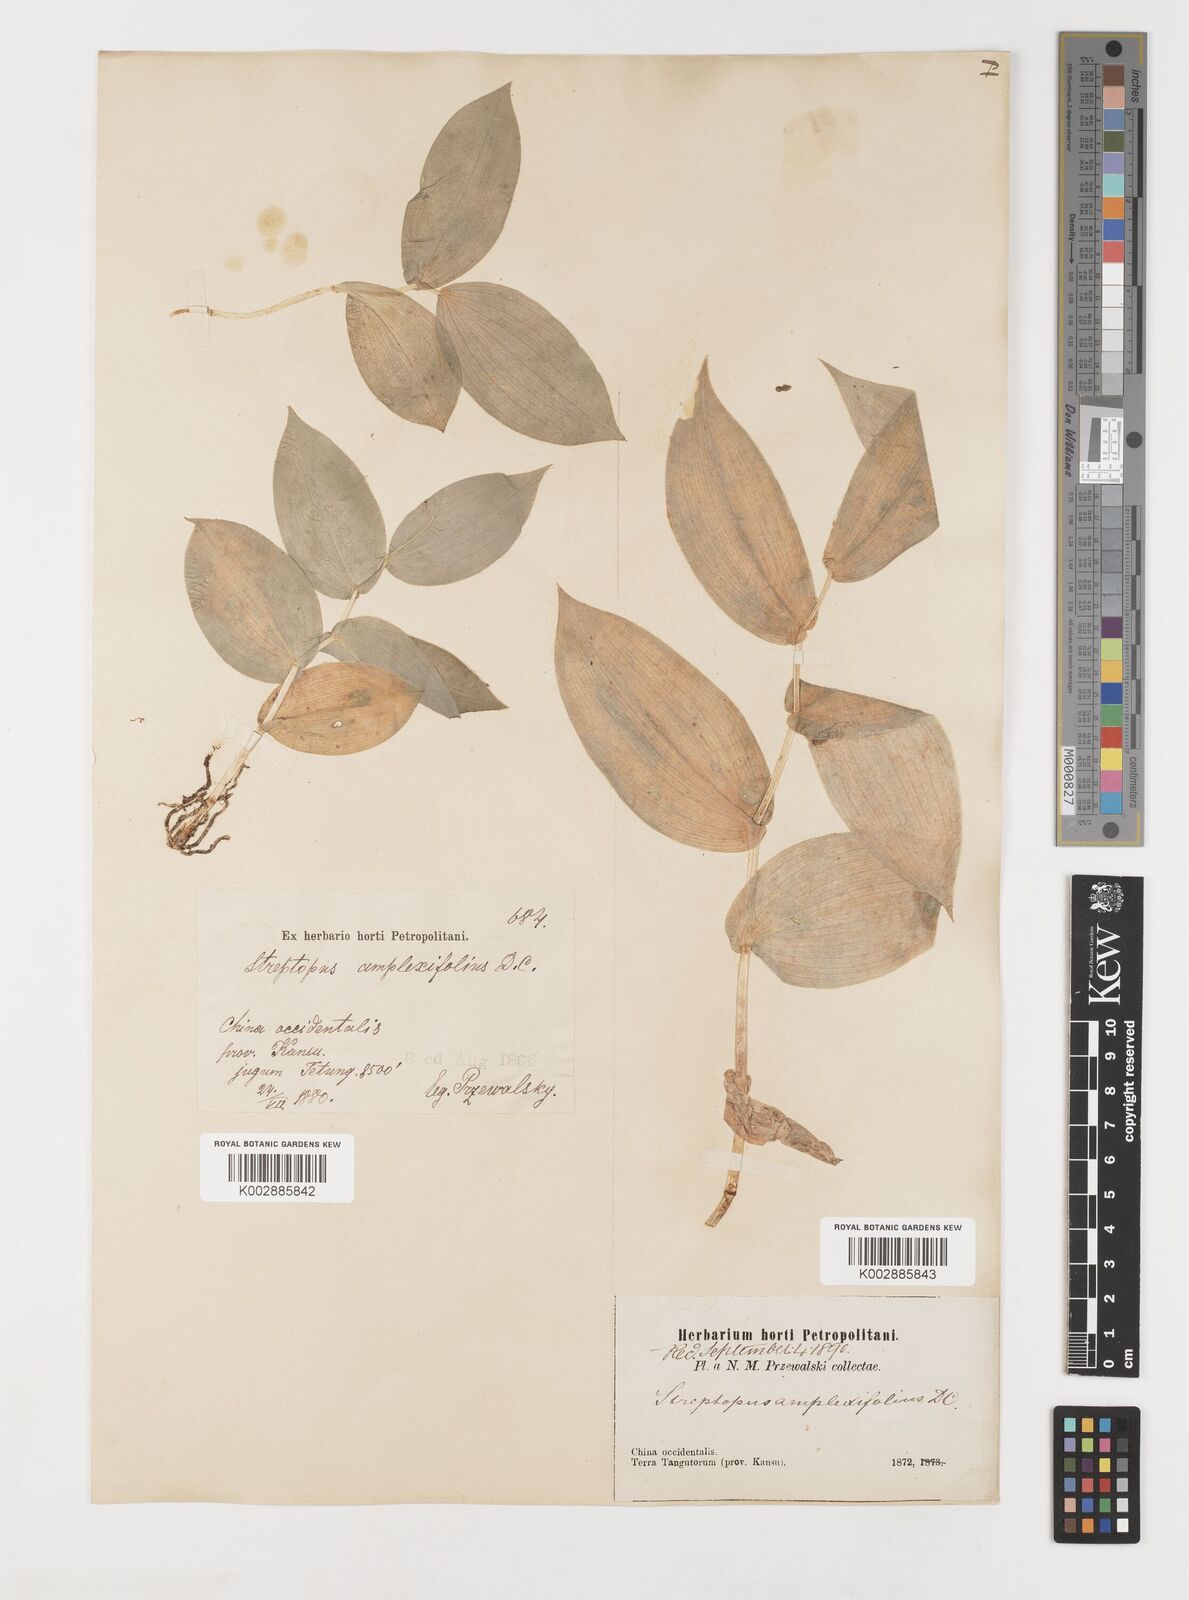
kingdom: Plantae
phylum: Tracheophyta
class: Liliopsida
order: Liliales
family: Liliaceae
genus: Streptopus
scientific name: Streptopus amplexifolius
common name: Clasp twisted stalk
